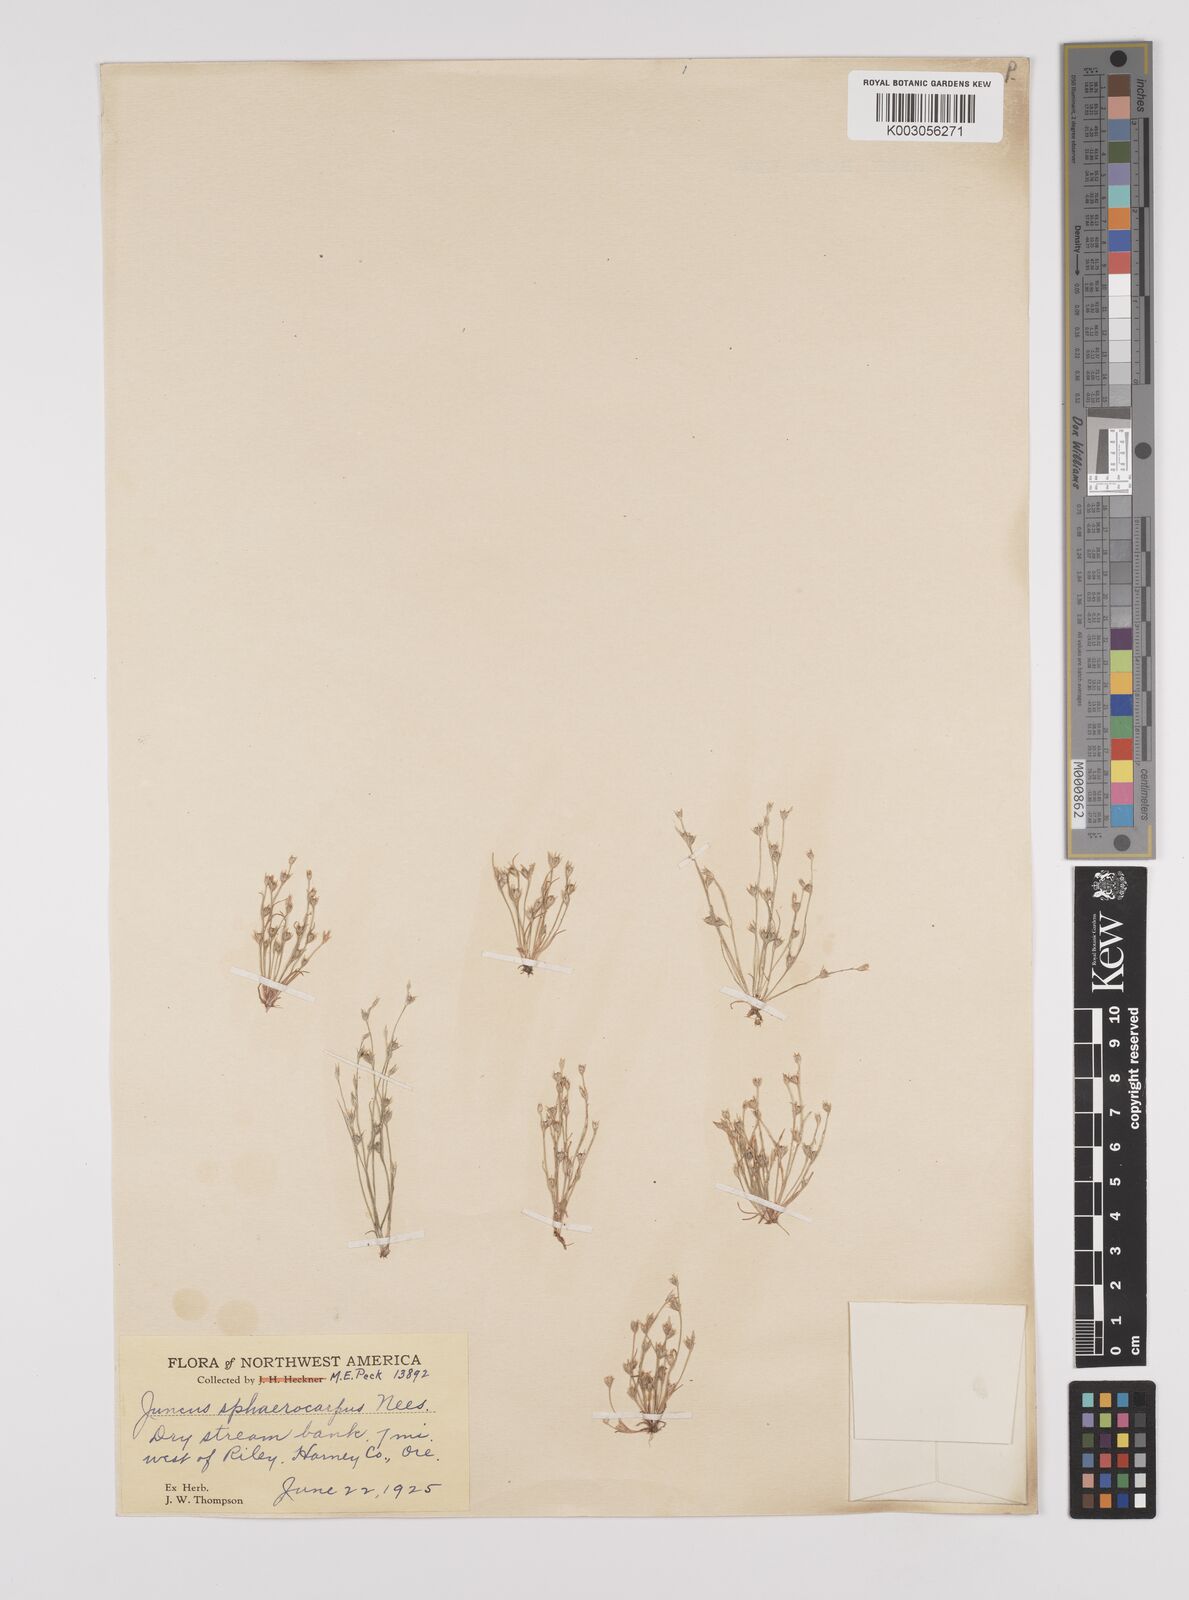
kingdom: Plantae
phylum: Tracheophyta
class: Liliopsida
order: Poales
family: Juncaceae
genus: Juncus
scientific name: Juncus sphaerocarpus
